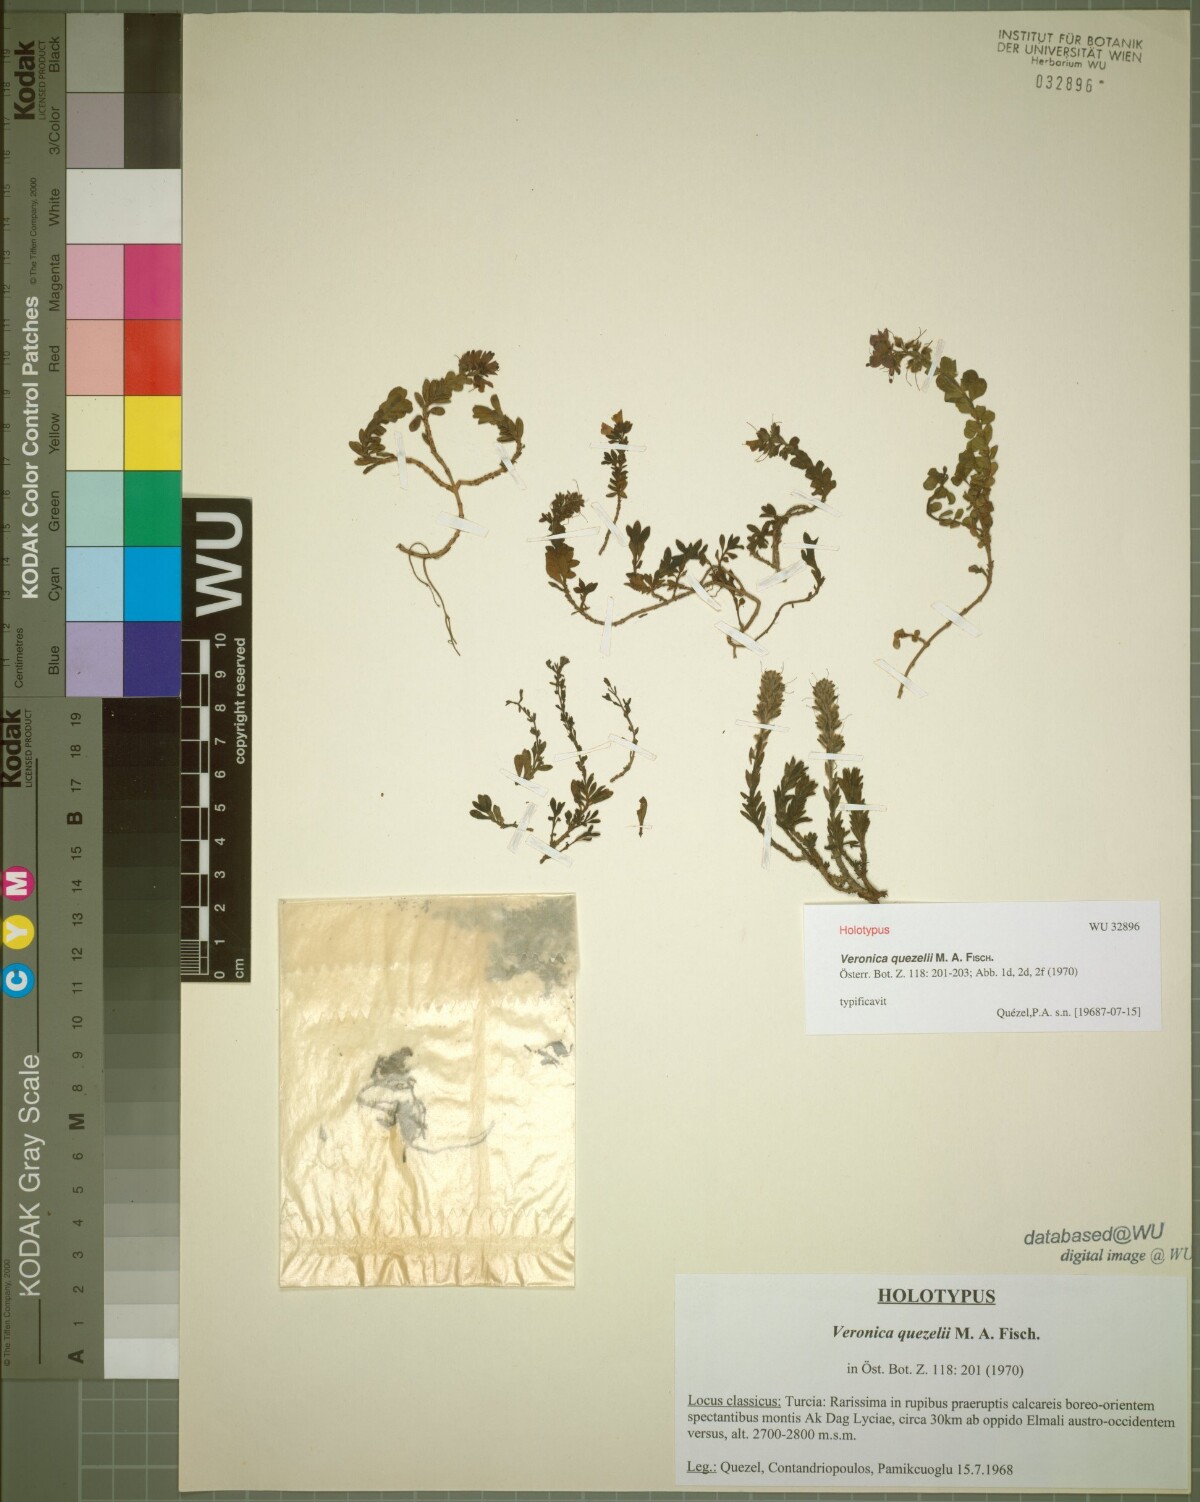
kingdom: Plantae
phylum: Tracheophyta
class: Magnoliopsida
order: Lamiales
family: Plantaginaceae
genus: Veronica
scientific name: Veronica quezelii
